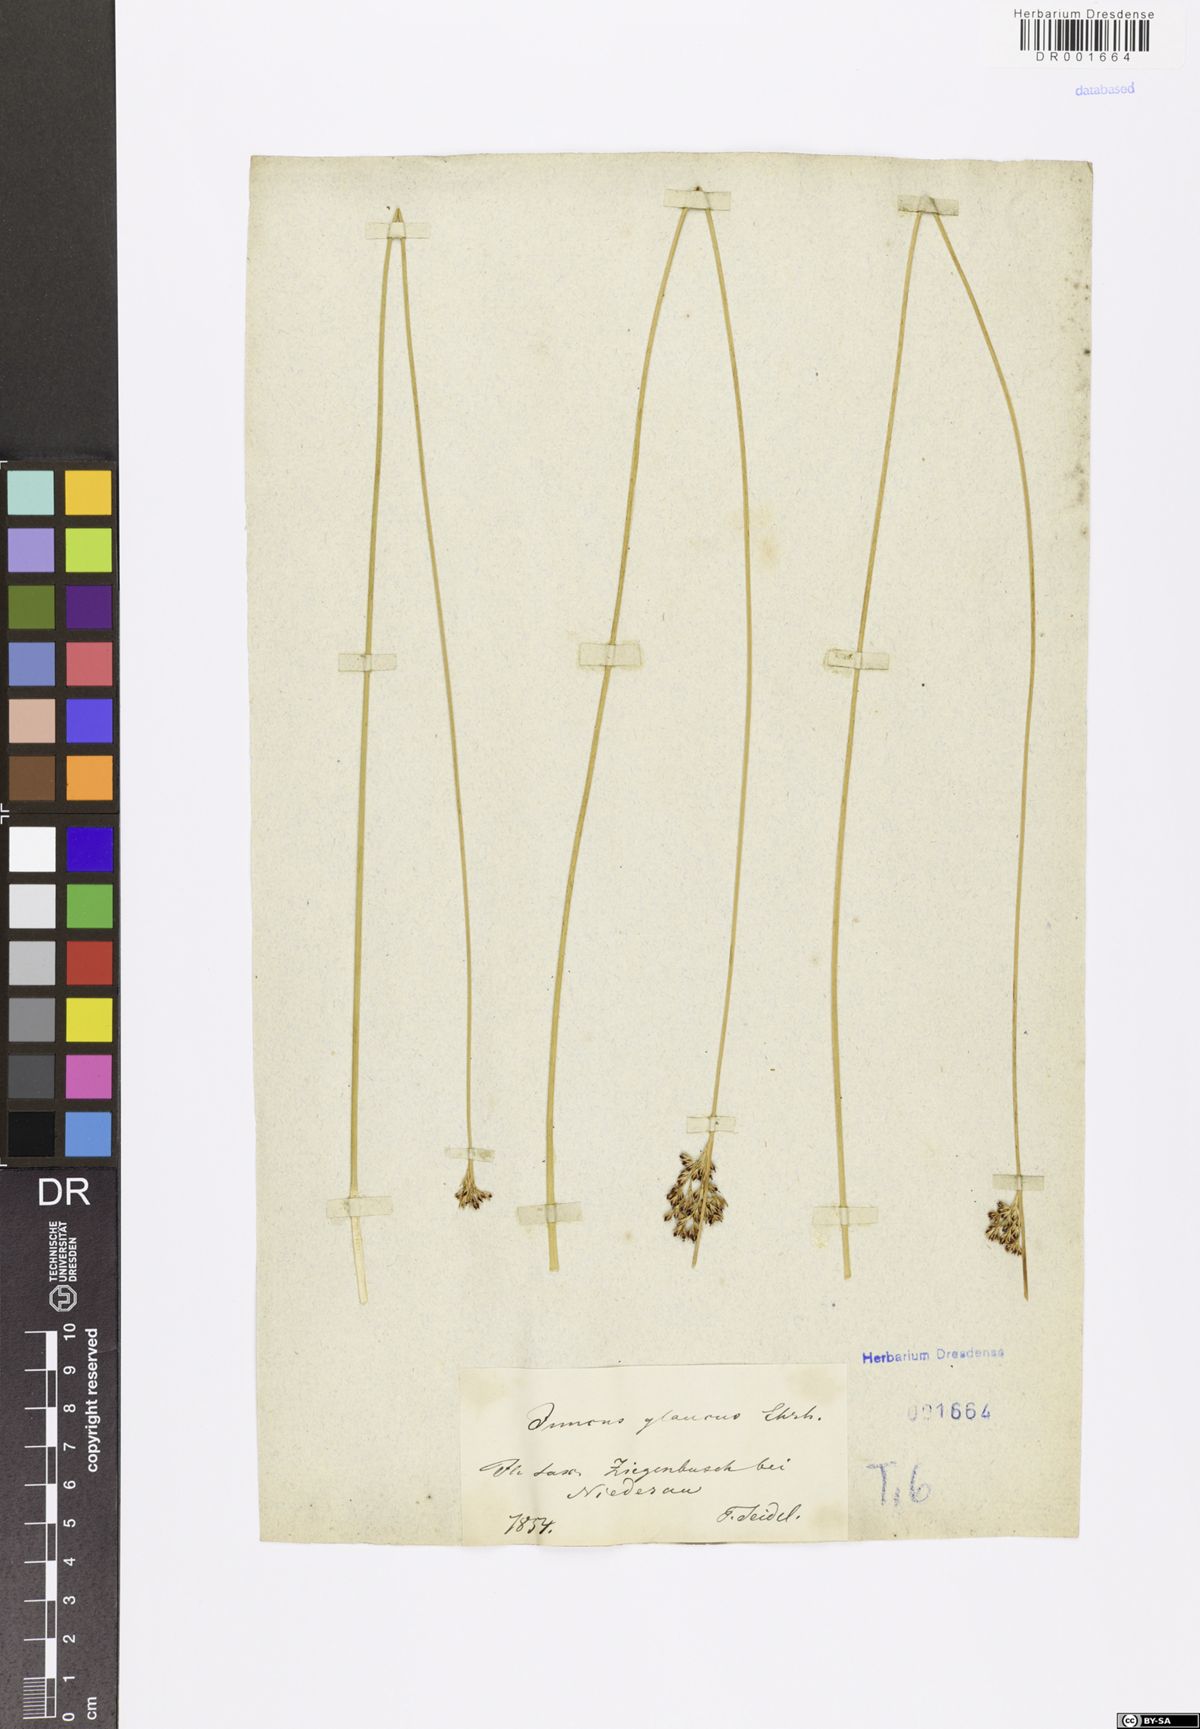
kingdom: Plantae
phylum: Tracheophyta
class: Liliopsida
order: Poales
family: Juncaceae
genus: Juncus
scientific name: Juncus inflexus
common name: Hard rush
